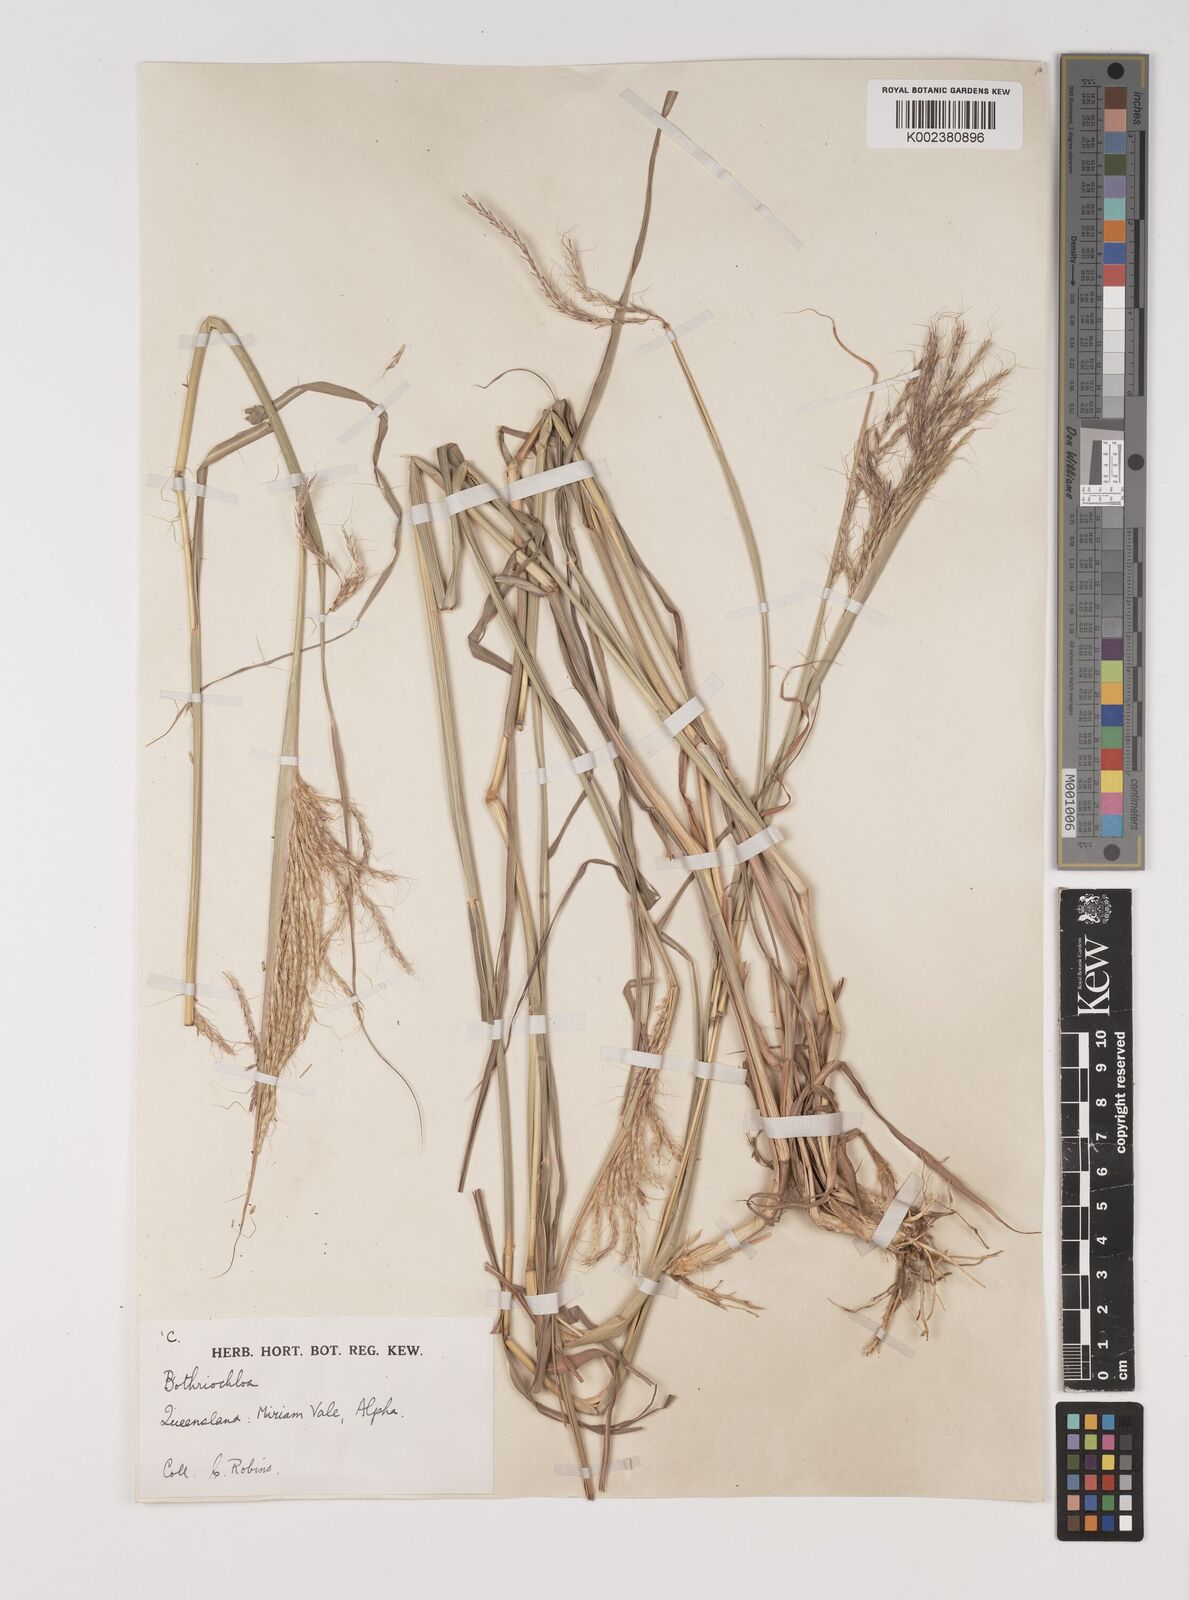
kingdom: Plantae
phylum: Tracheophyta
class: Liliopsida
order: Poales
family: Poaceae
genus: Bothriochloa
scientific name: Bothriochloa bladhii
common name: Caucasian bluestem
